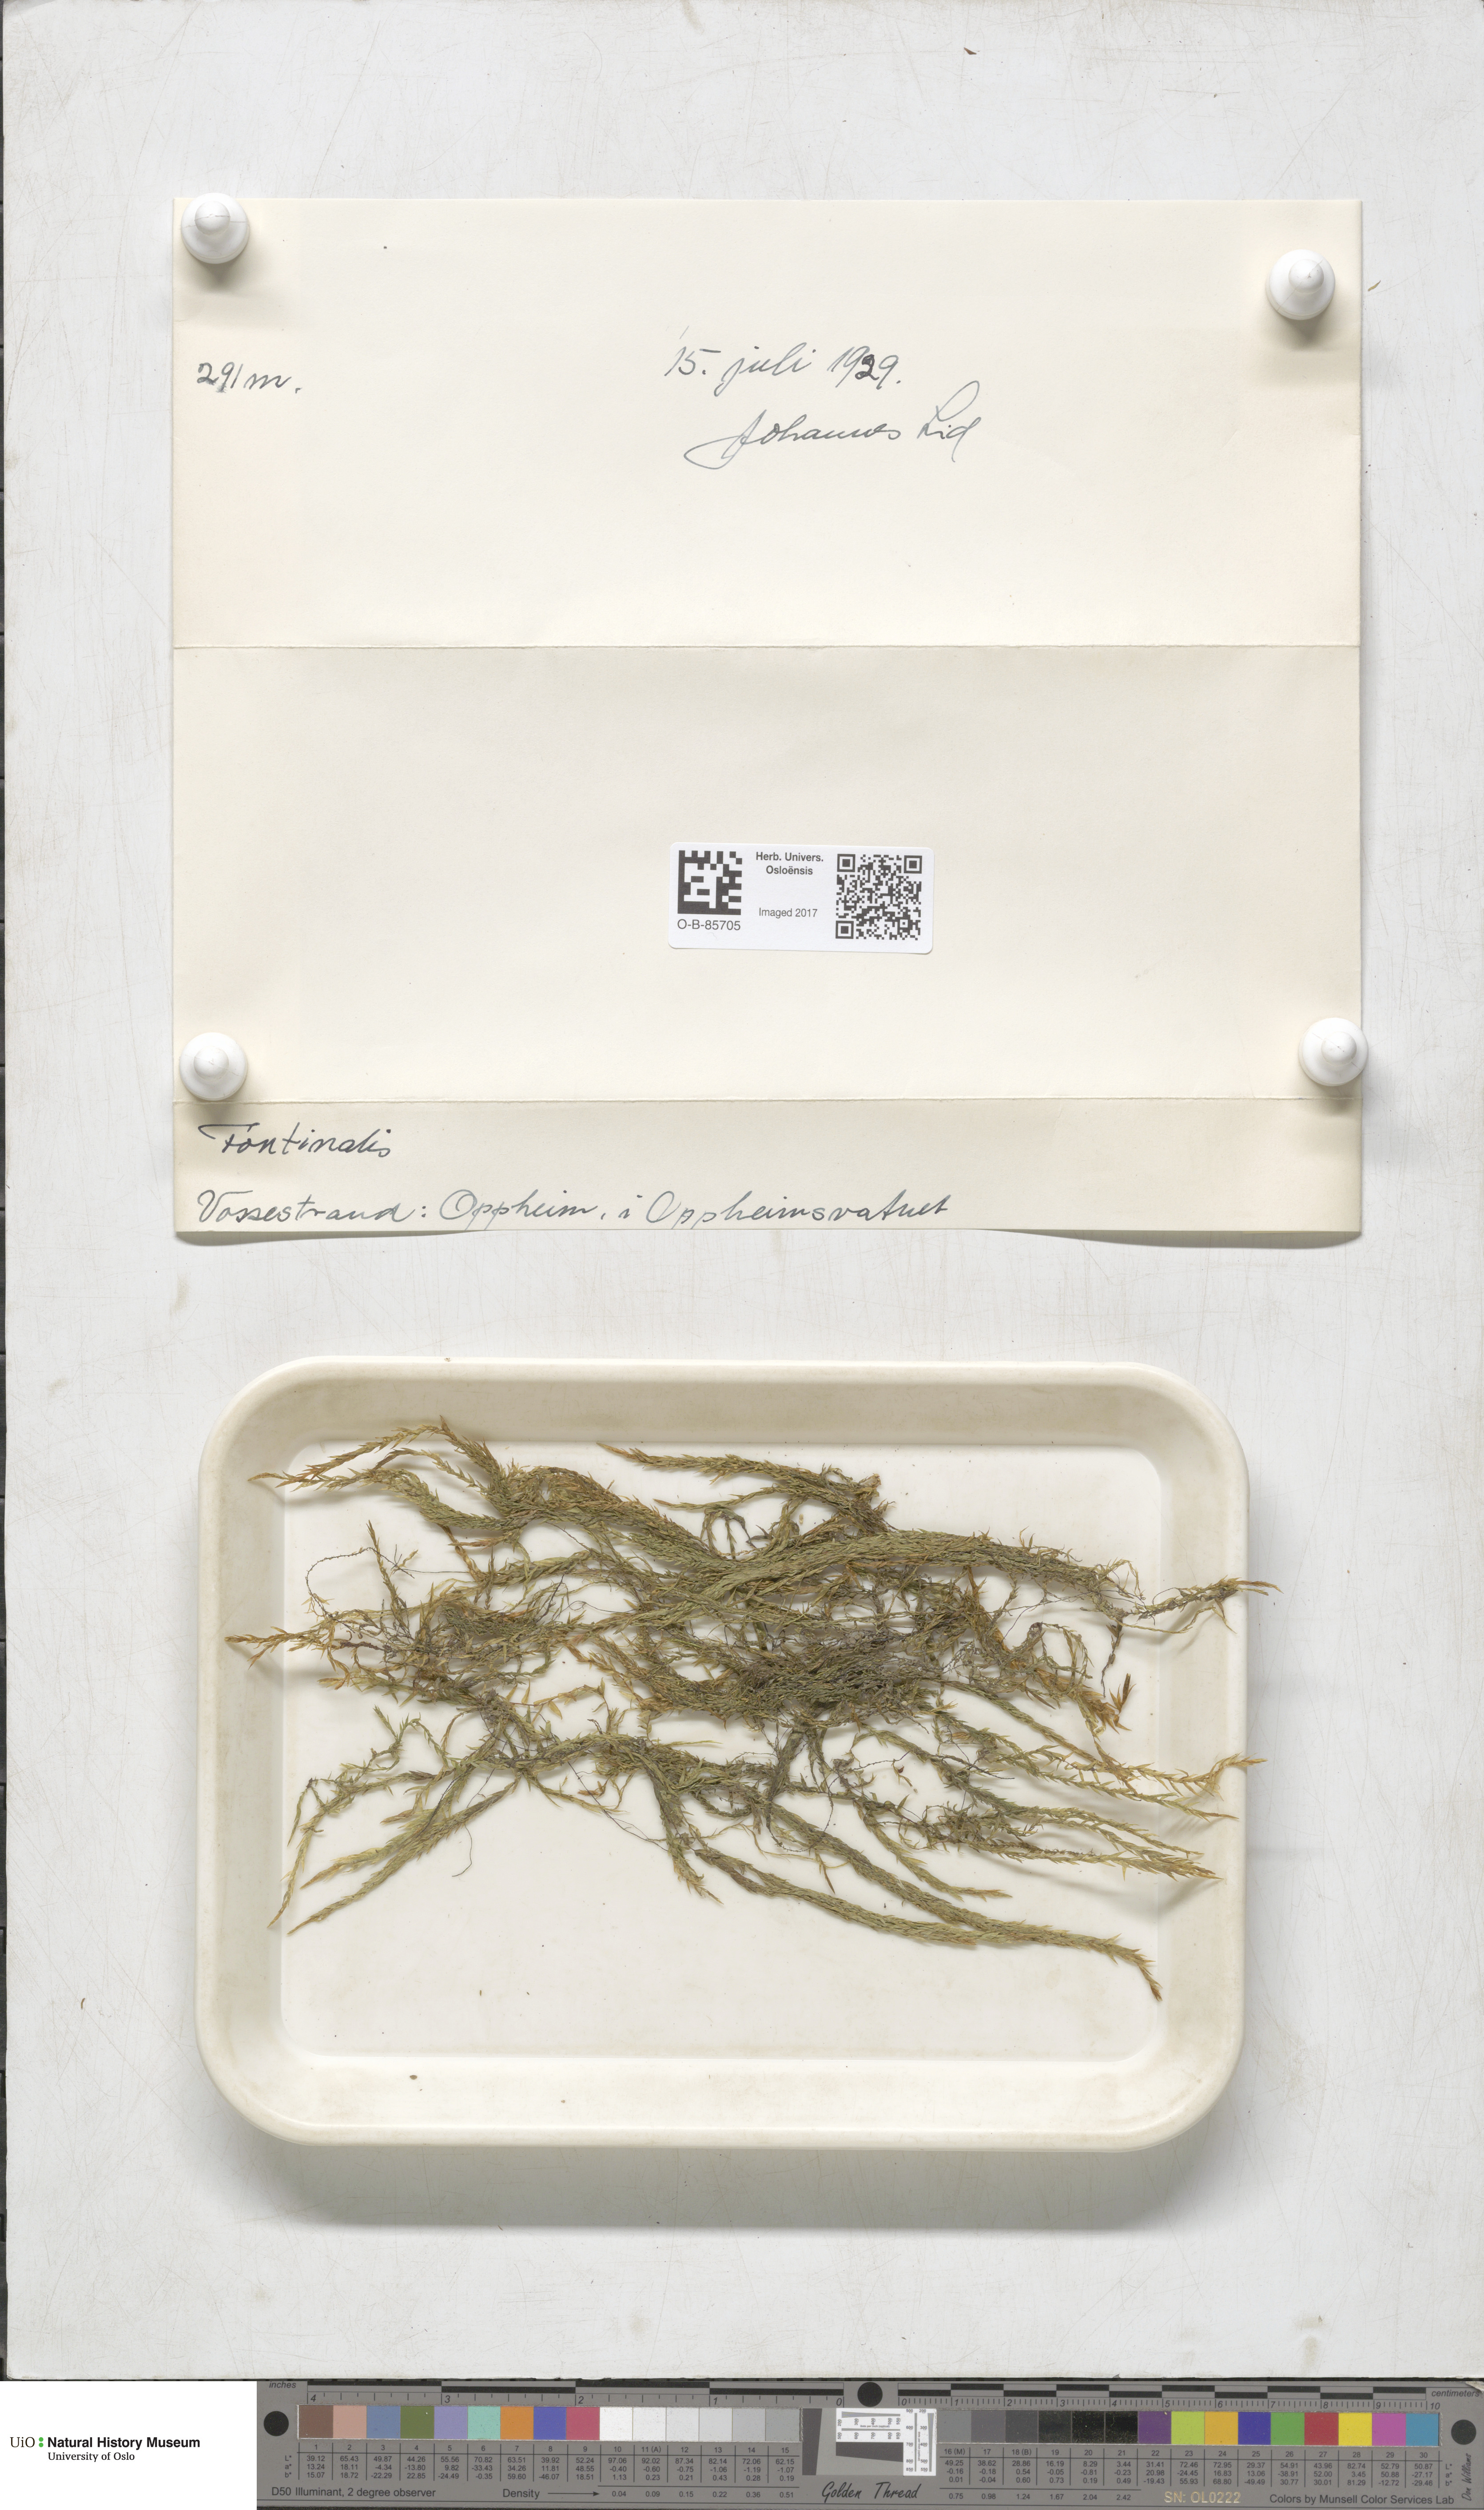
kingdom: Plantae
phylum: Bryophyta
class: Bryopsida
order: Hypnales
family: Fontinalaceae
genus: Fontinalis
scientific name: Fontinalis
